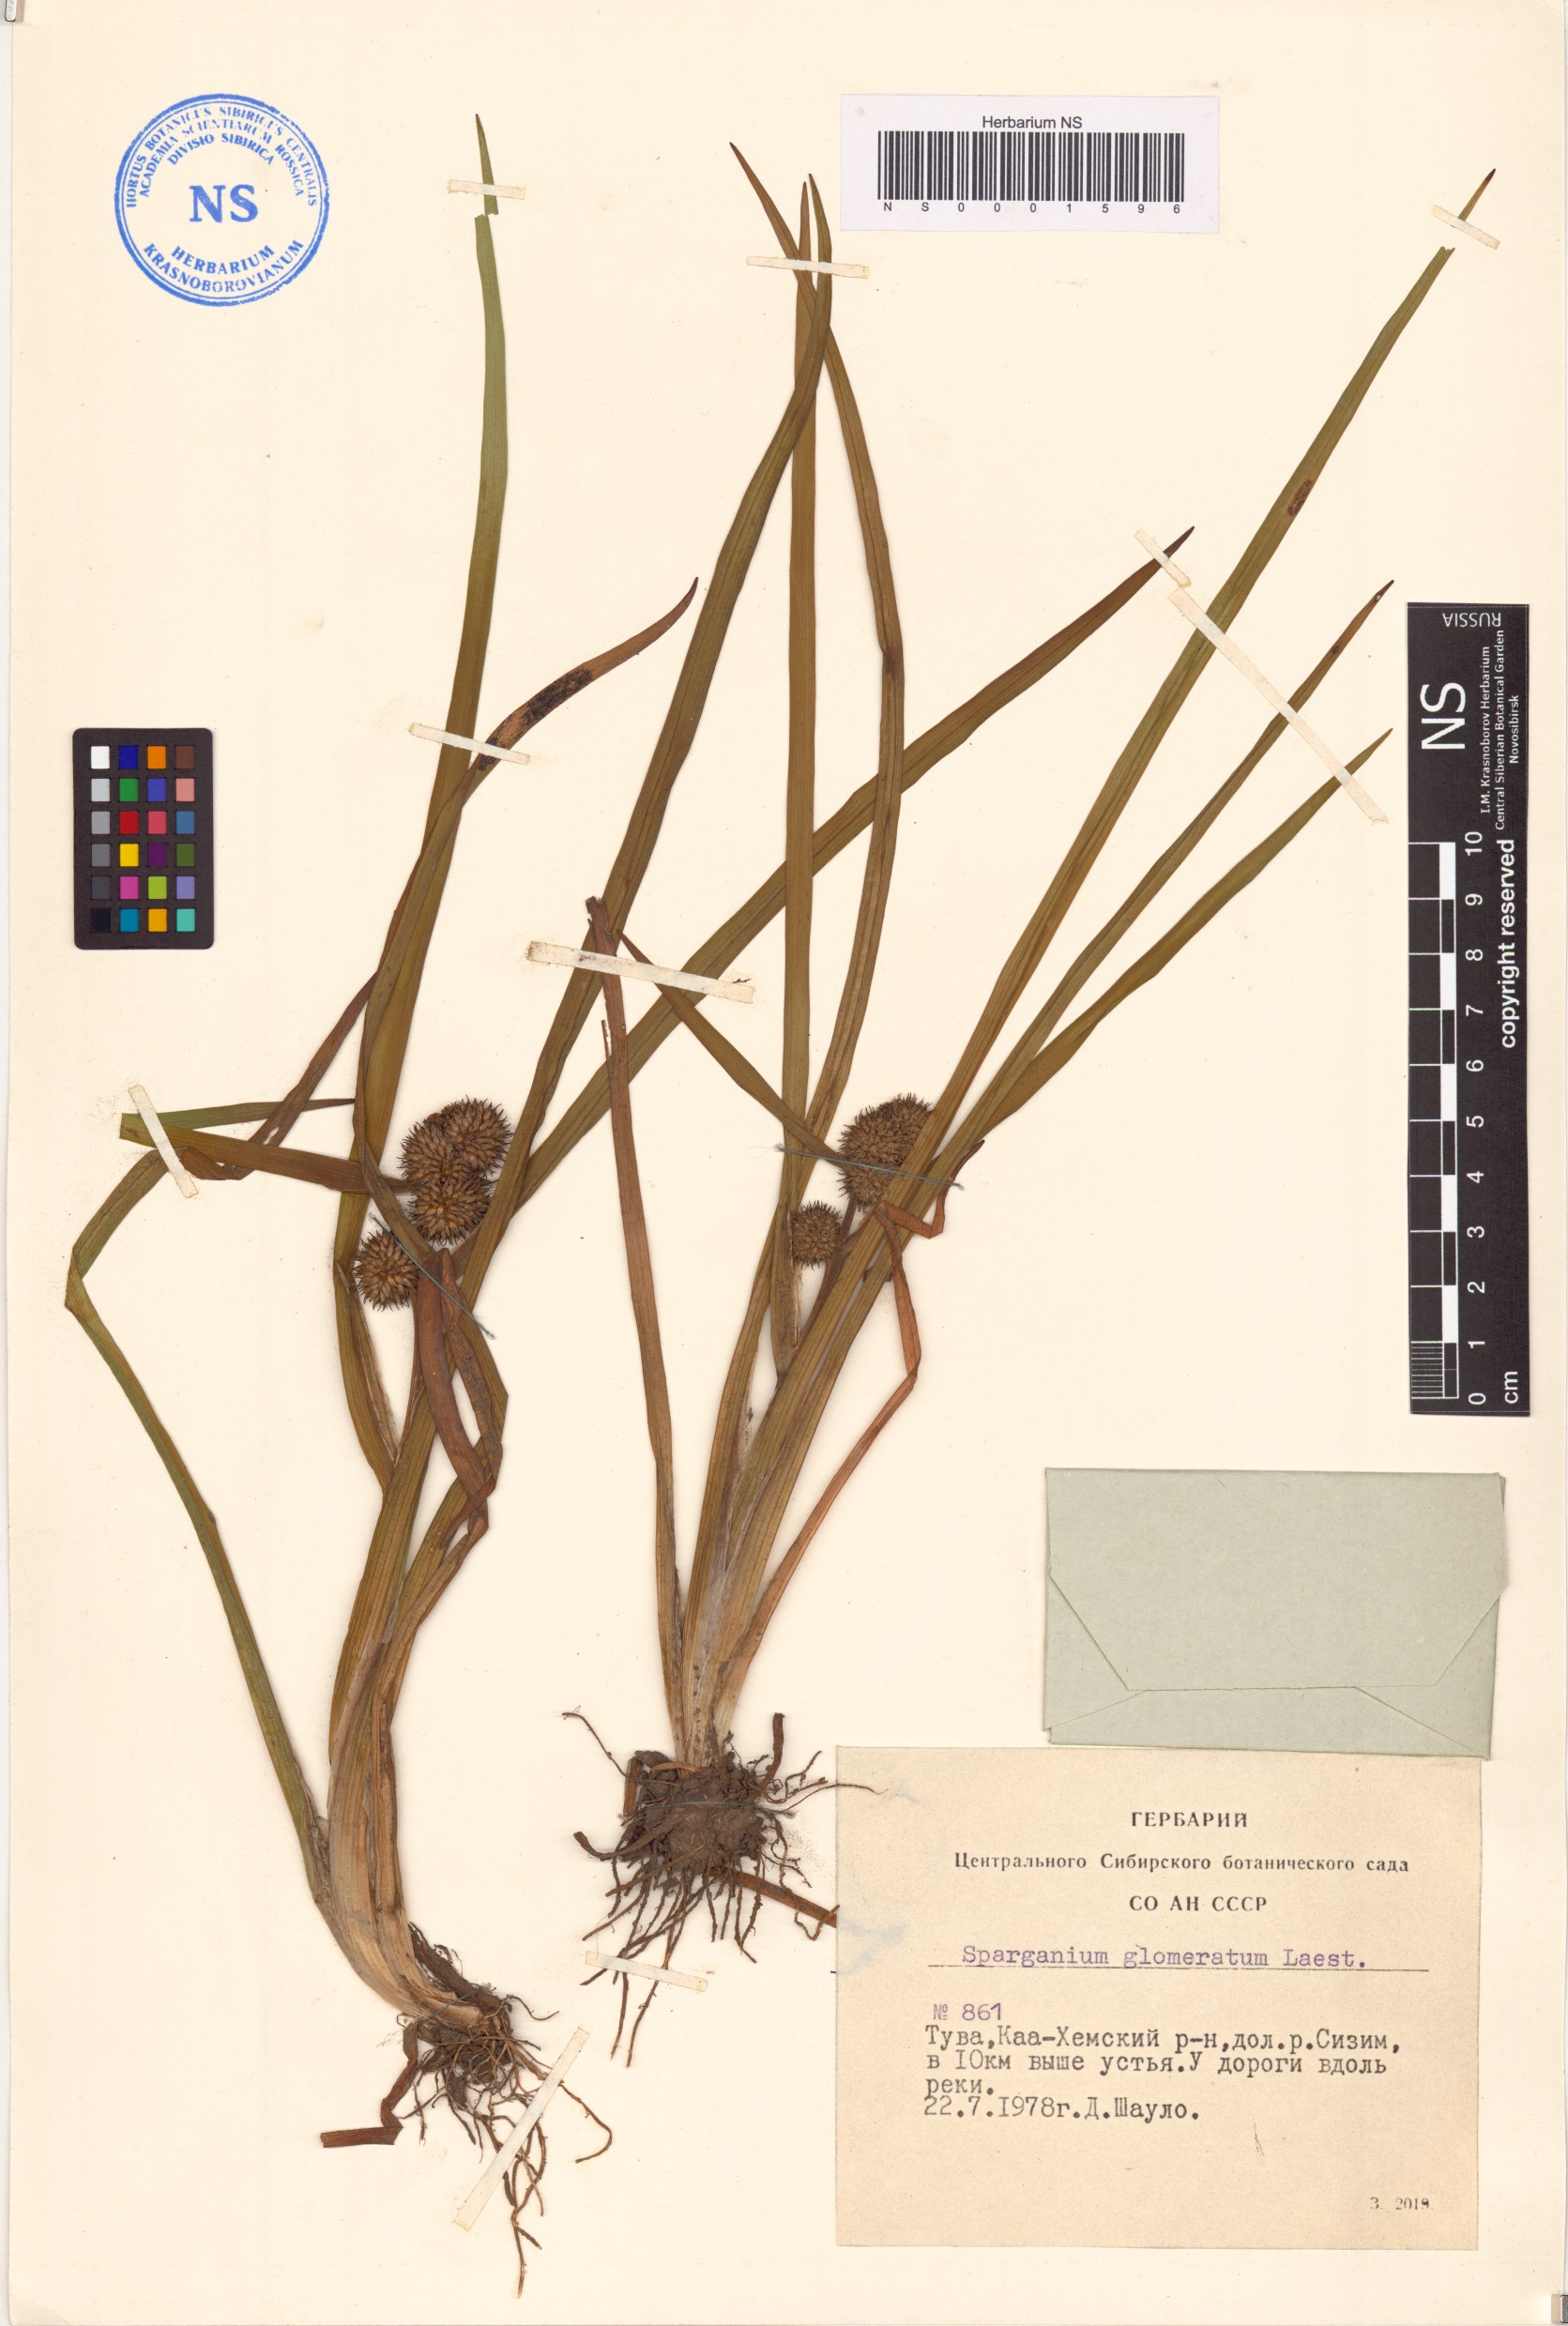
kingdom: Plantae
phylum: Tracheophyta
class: Liliopsida
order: Poales
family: Typhaceae
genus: Sparganium
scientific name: Sparganium glomeratum
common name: Clustered burreed
